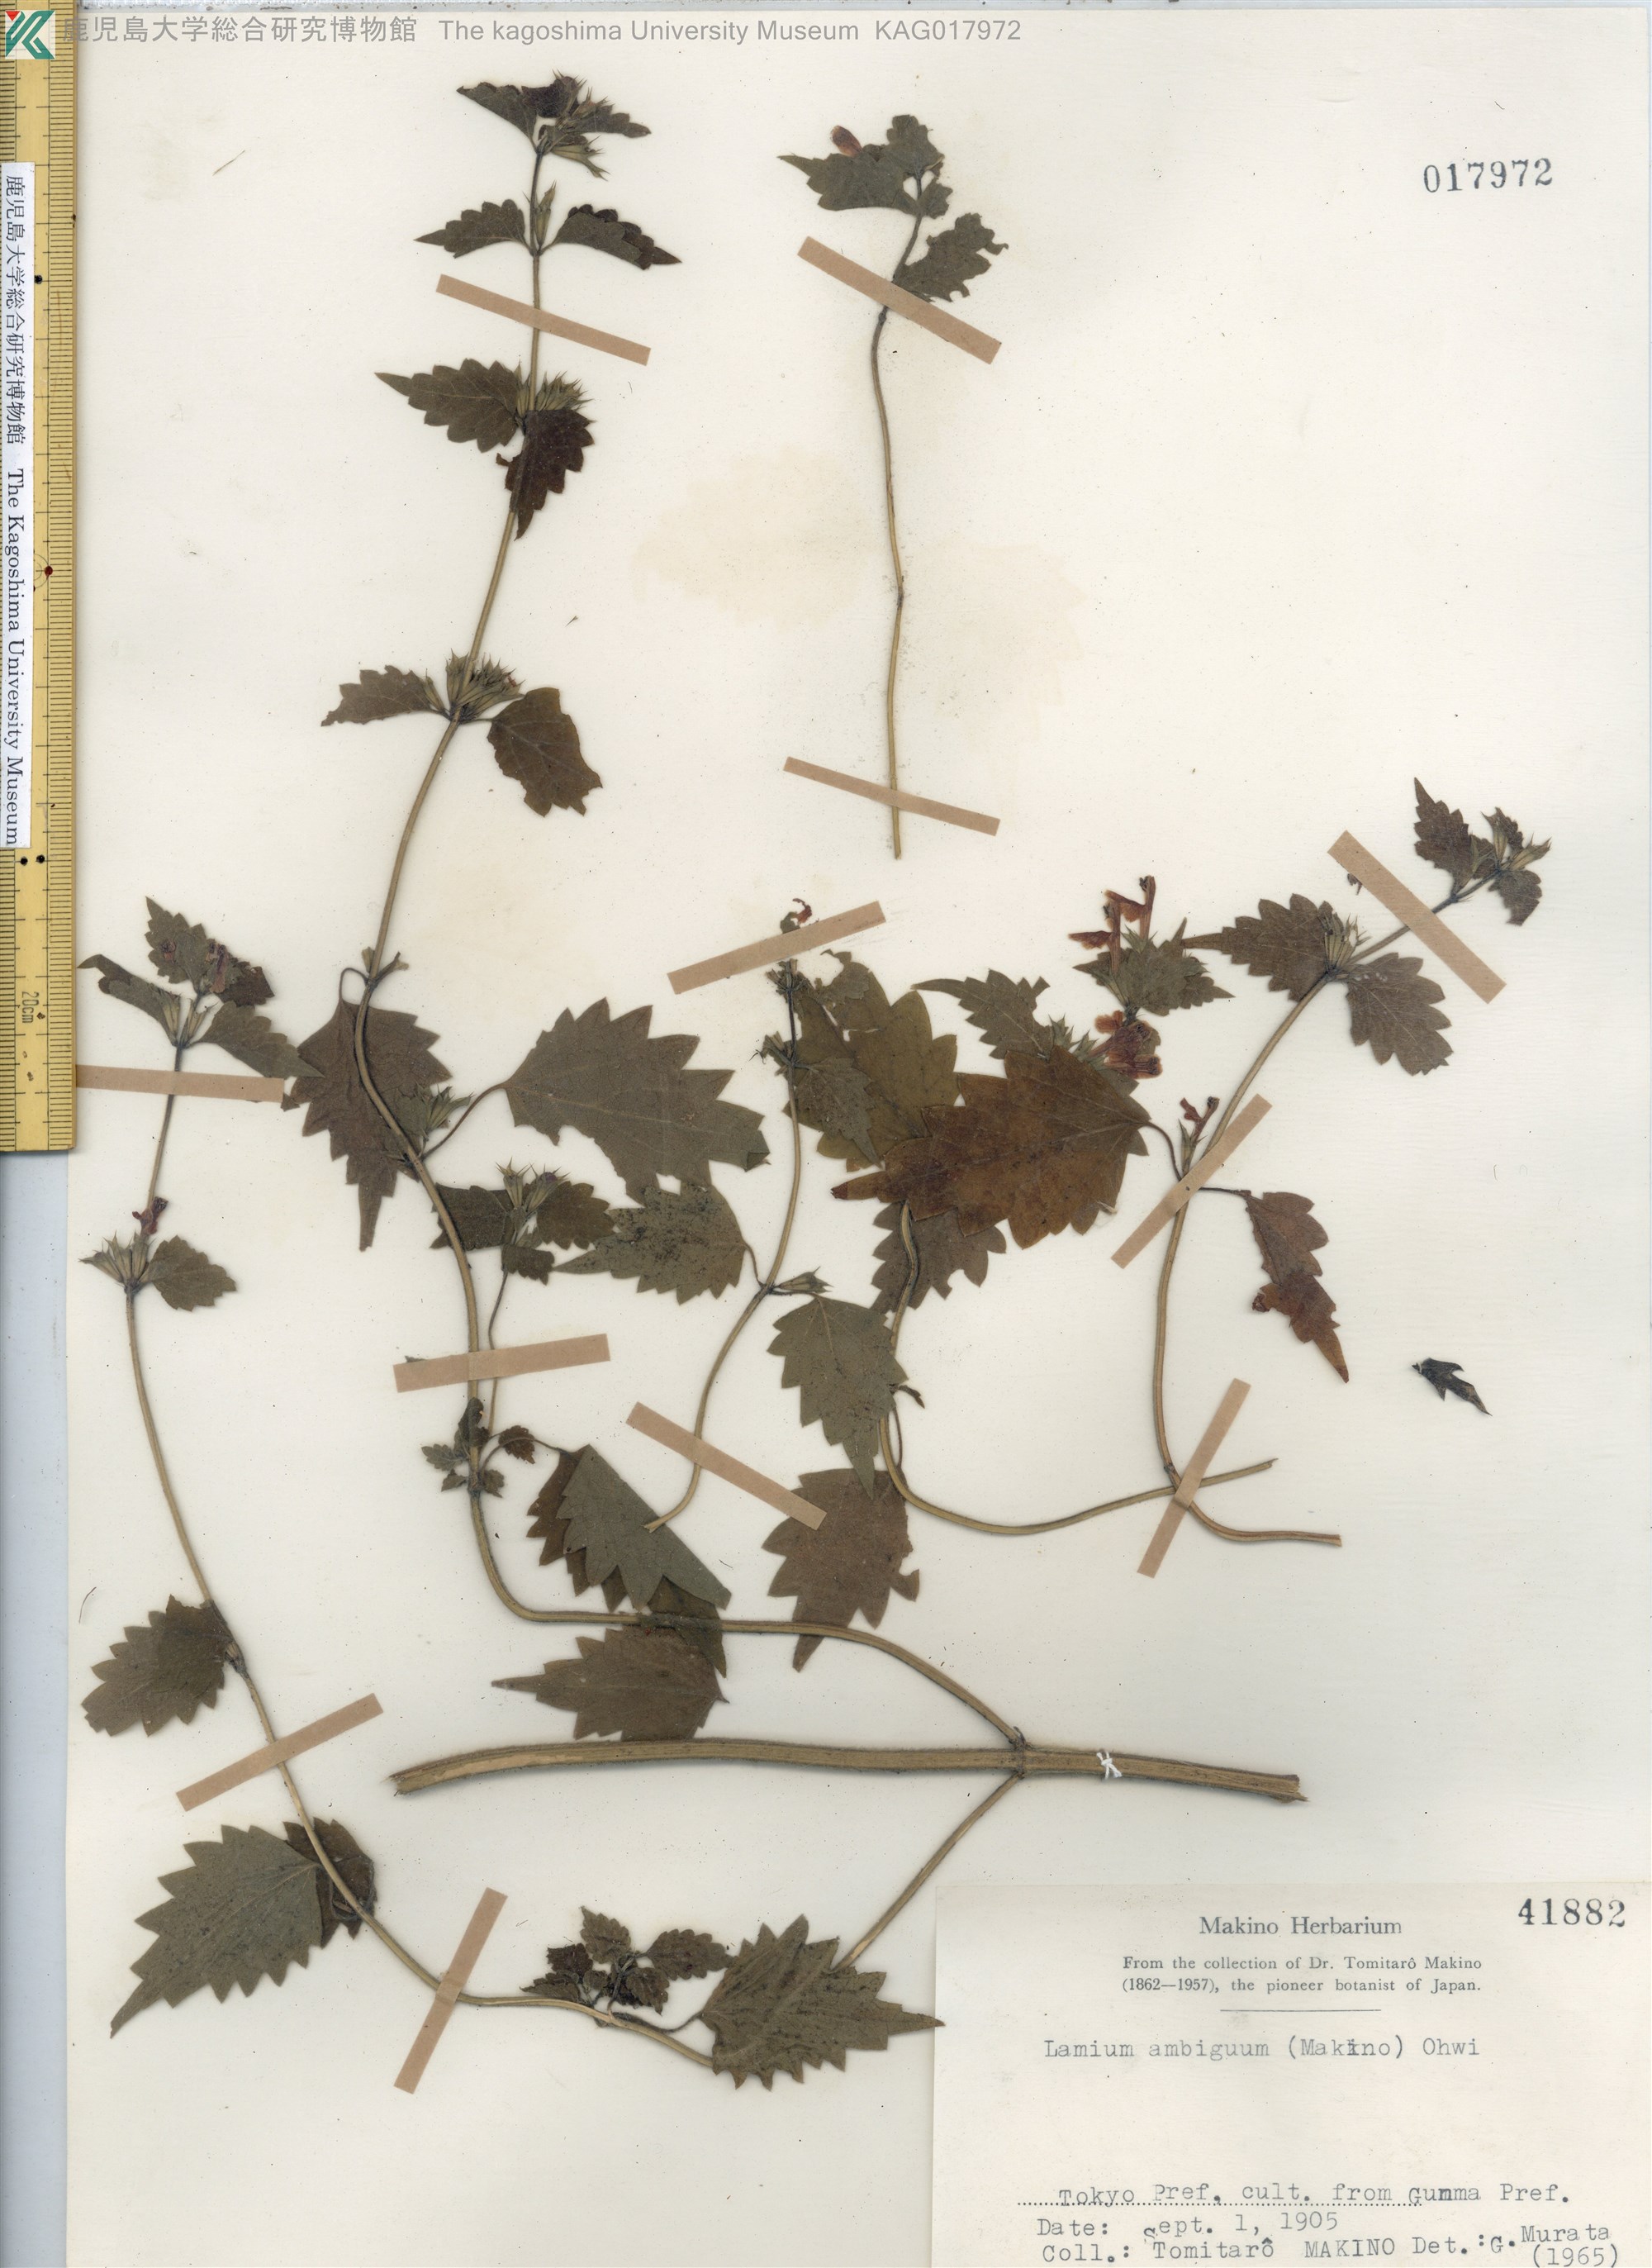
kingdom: Plantae
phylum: Tracheophyta
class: Magnoliopsida
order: Lamiales
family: Lamiaceae
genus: Loxocalyx
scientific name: Loxocalyx ambiguus
